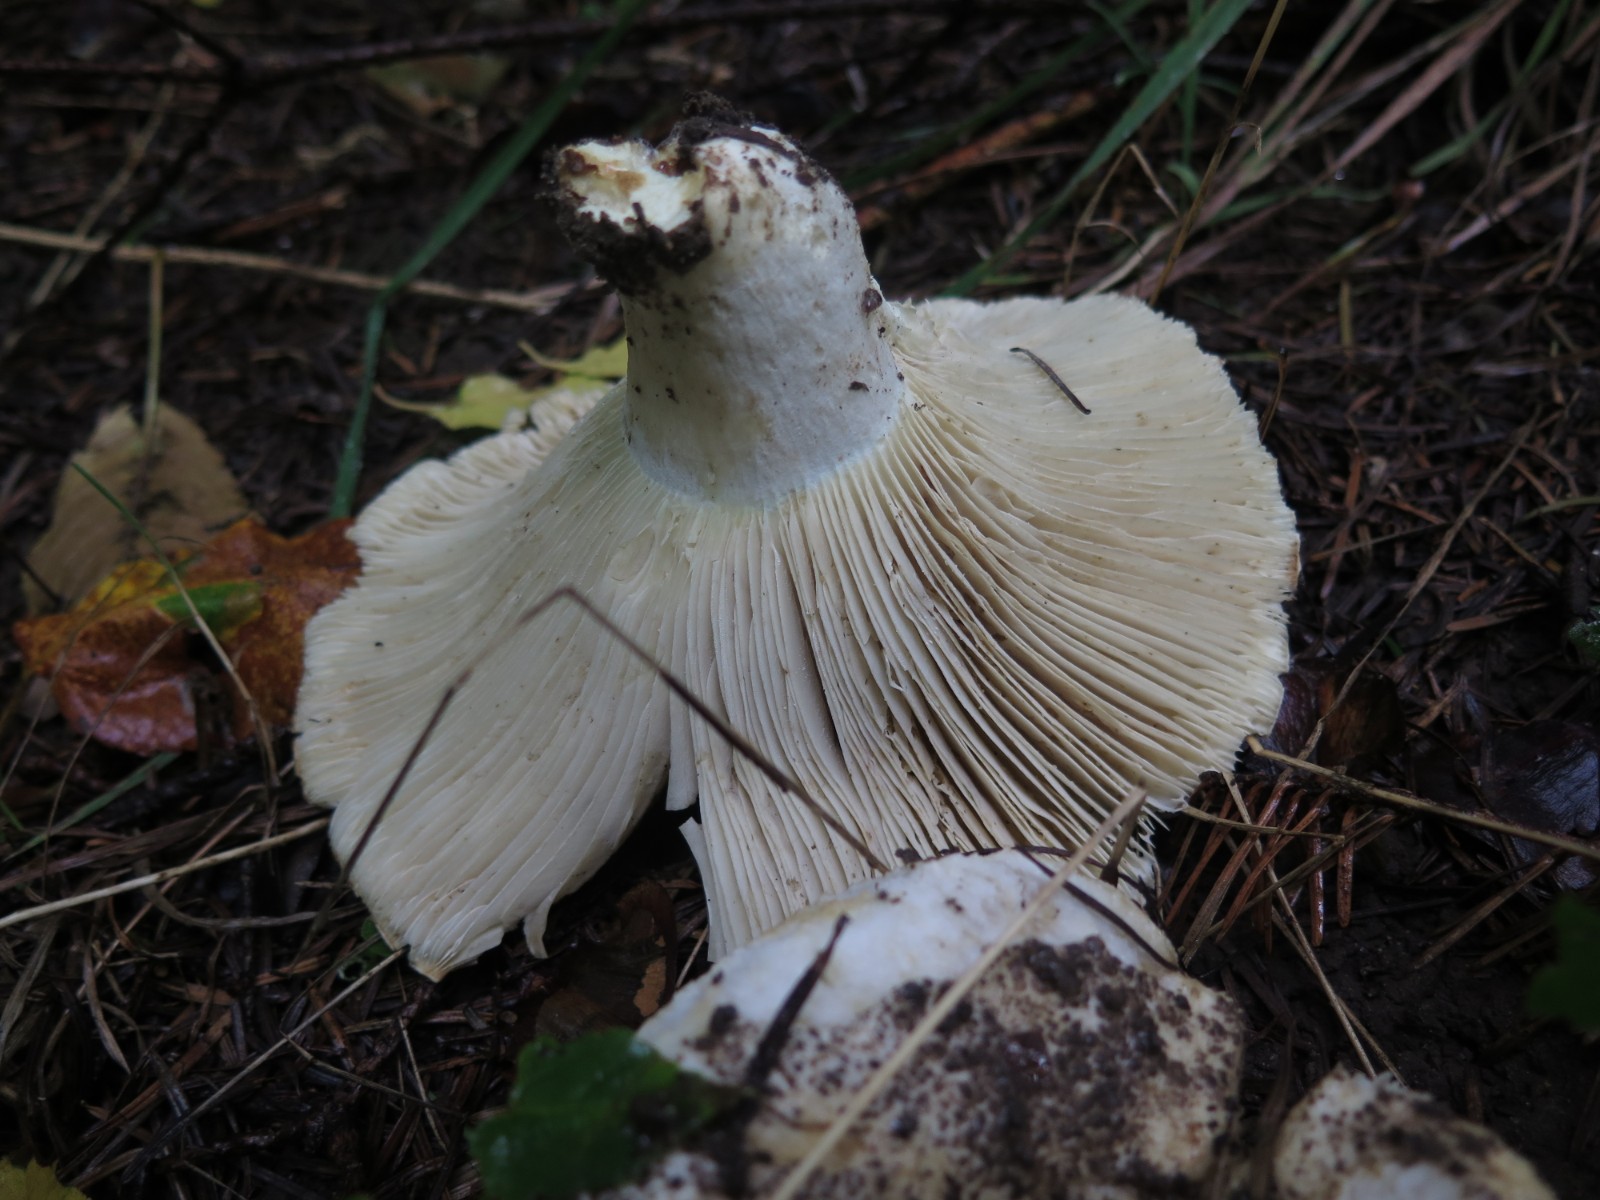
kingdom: Fungi
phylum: Basidiomycota
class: Agaricomycetes
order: Russulales
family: Russulaceae
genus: Russula
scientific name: Russula chloroides
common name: grønhalset tragt-skørhat
